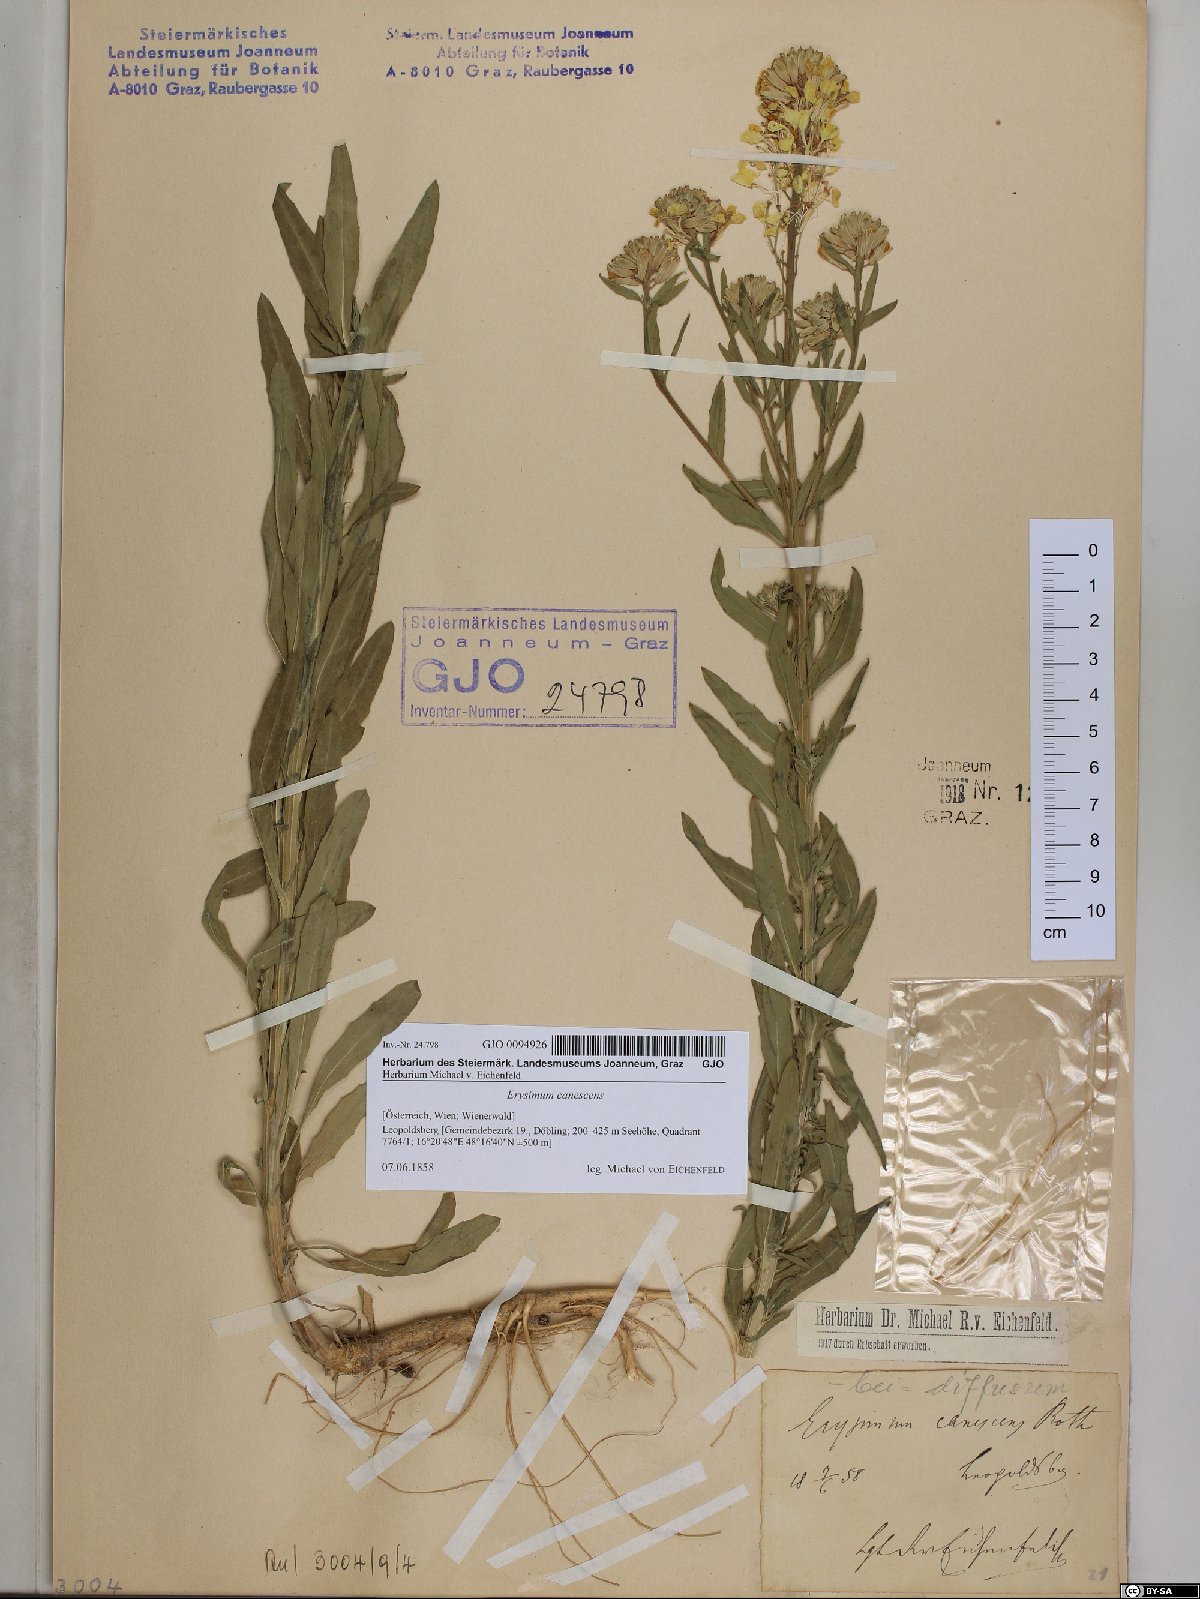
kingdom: Plantae
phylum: Tracheophyta
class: Magnoliopsida
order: Brassicales
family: Brassicaceae
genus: Erysimum
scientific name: Erysimum canescens
